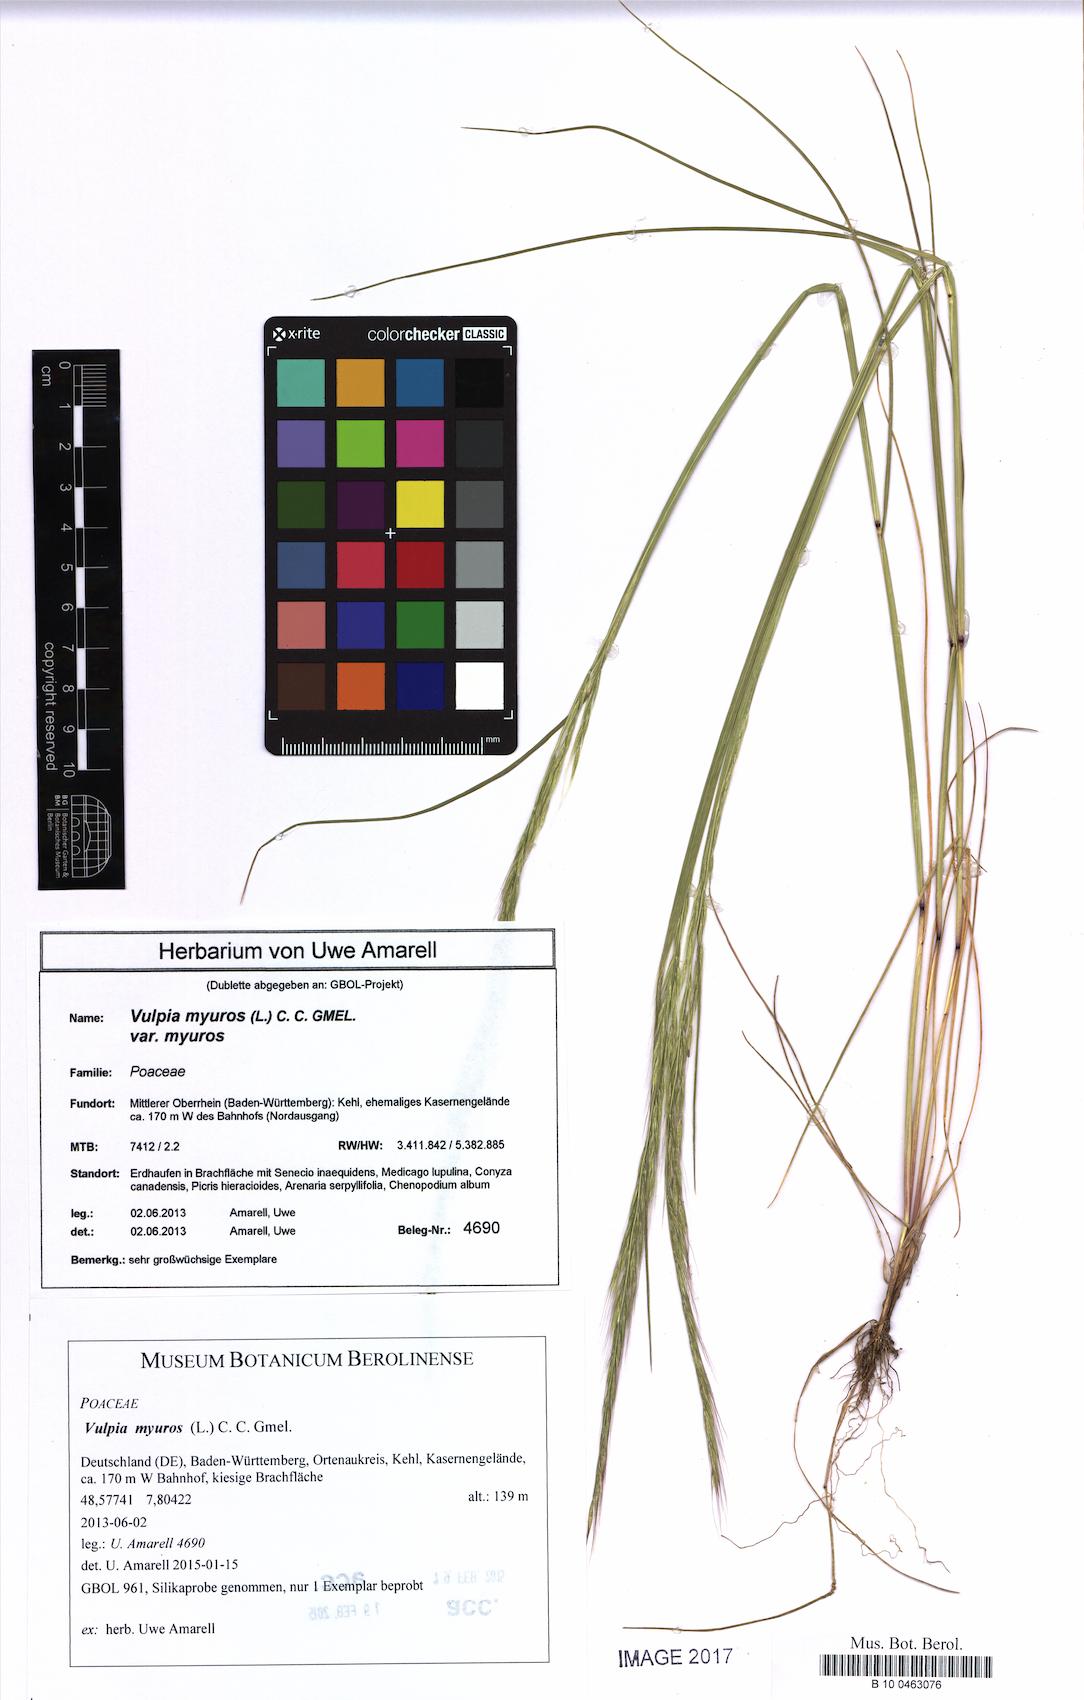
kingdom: Plantae
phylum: Tracheophyta
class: Liliopsida
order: Poales
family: Poaceae
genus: Festuca
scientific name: Festuca myuros
